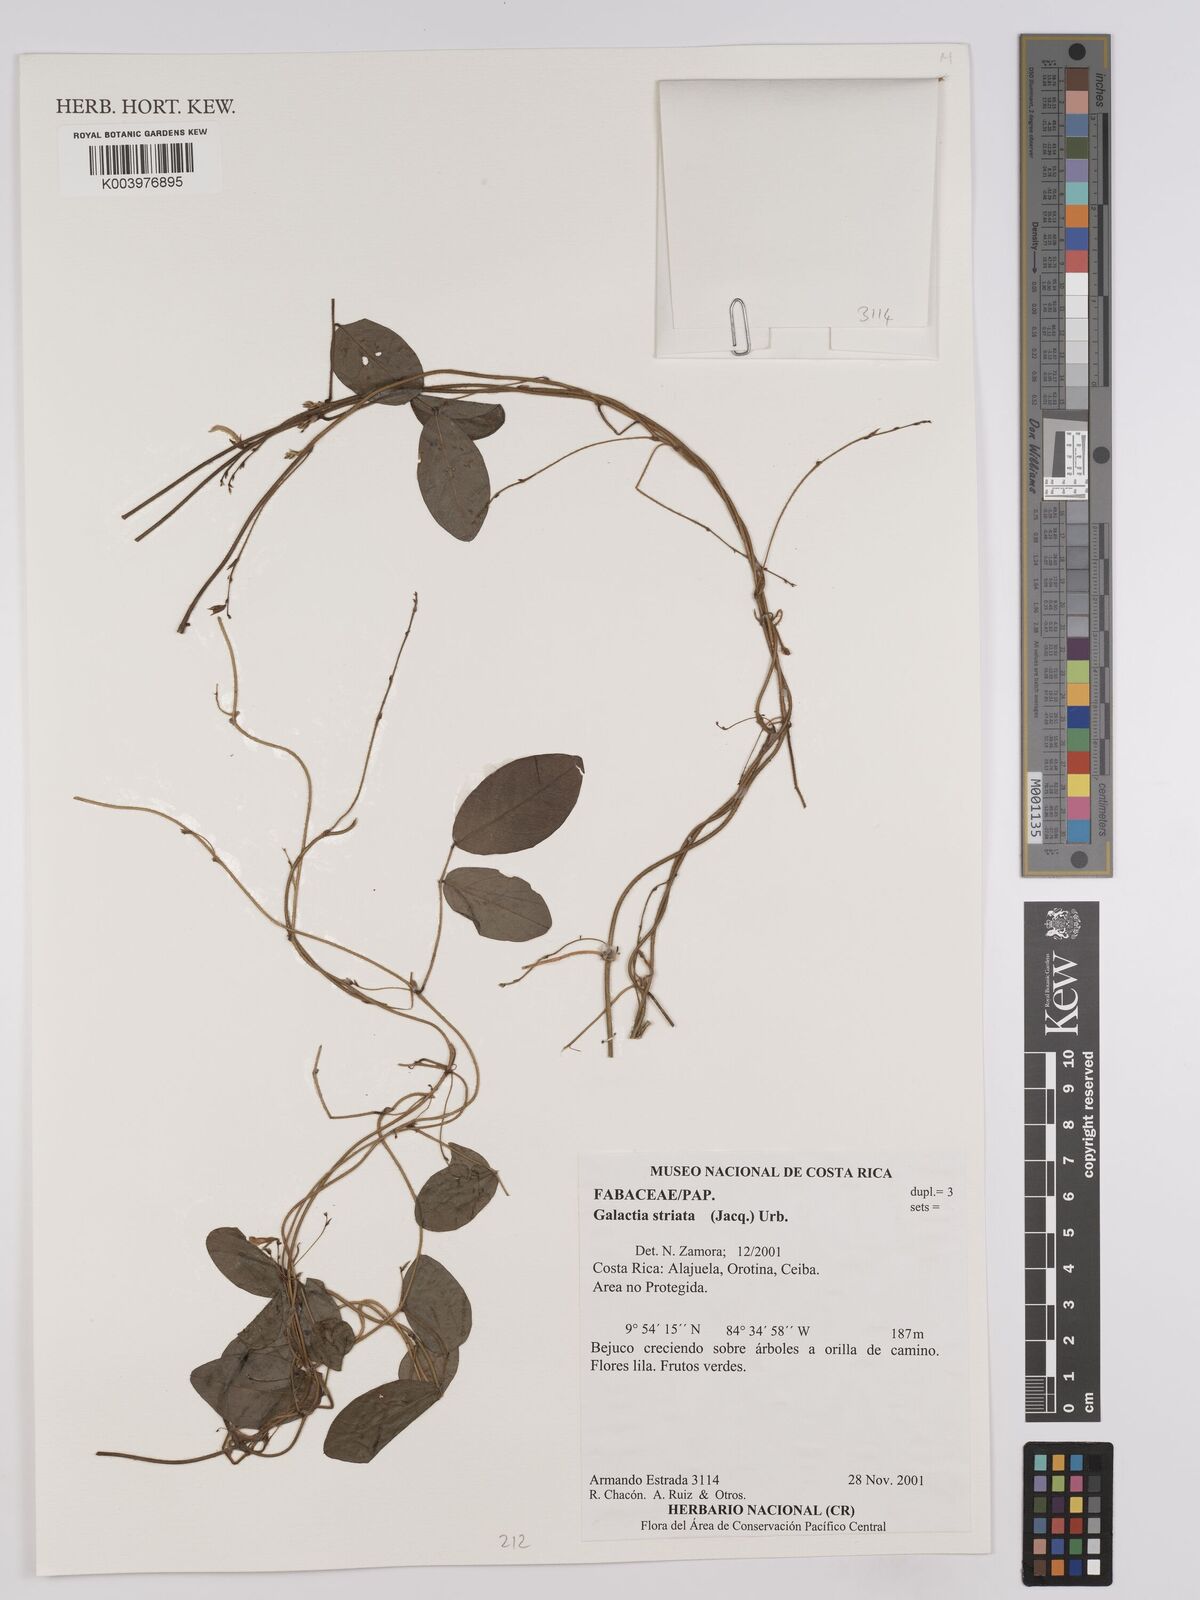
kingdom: Plantae
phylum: Tracheophyta
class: Magnoliopsida
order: Fabales
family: Fabaceae
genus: Galactia
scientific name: Galactia striata
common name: Florida hammock milkpea
